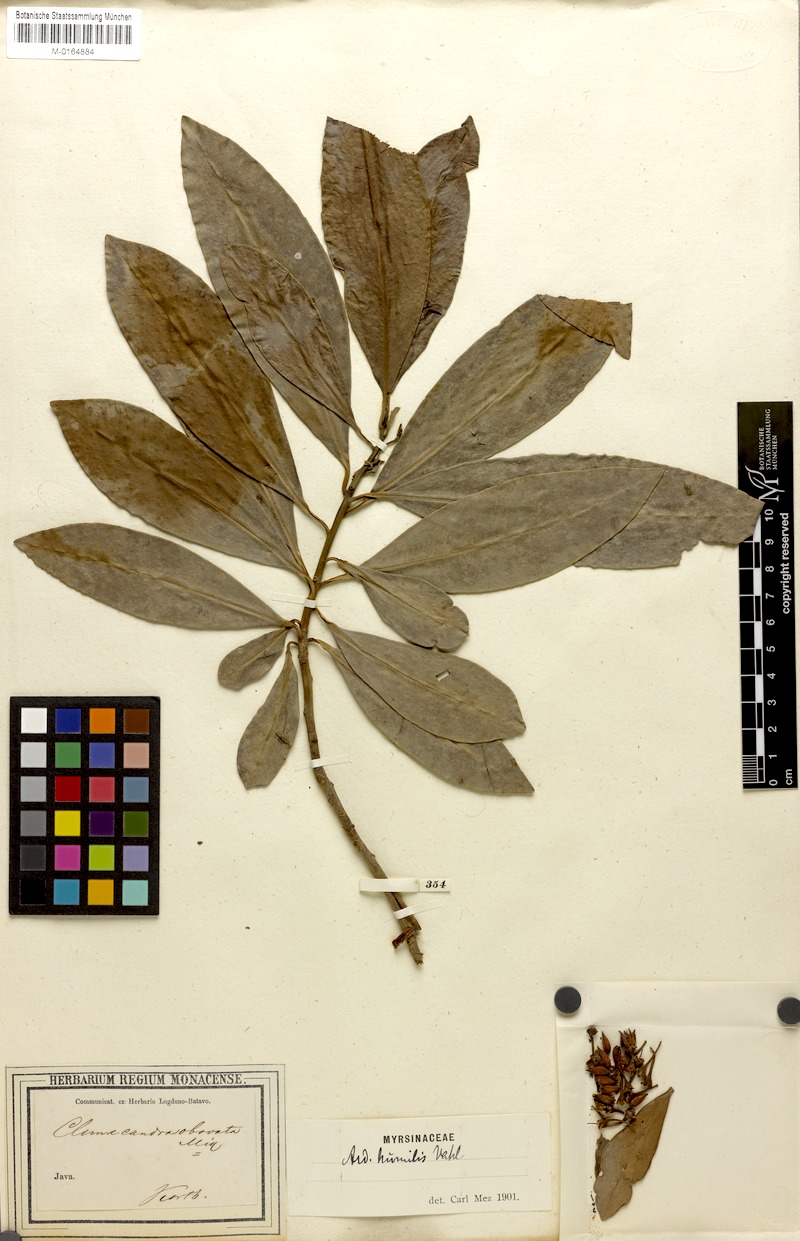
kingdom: Plantae
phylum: Tracheophyta
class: Magnoliopsida
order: Ericales
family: Primulaceae
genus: Ardisia
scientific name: Ardisia humilis
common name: Low shoebutton
